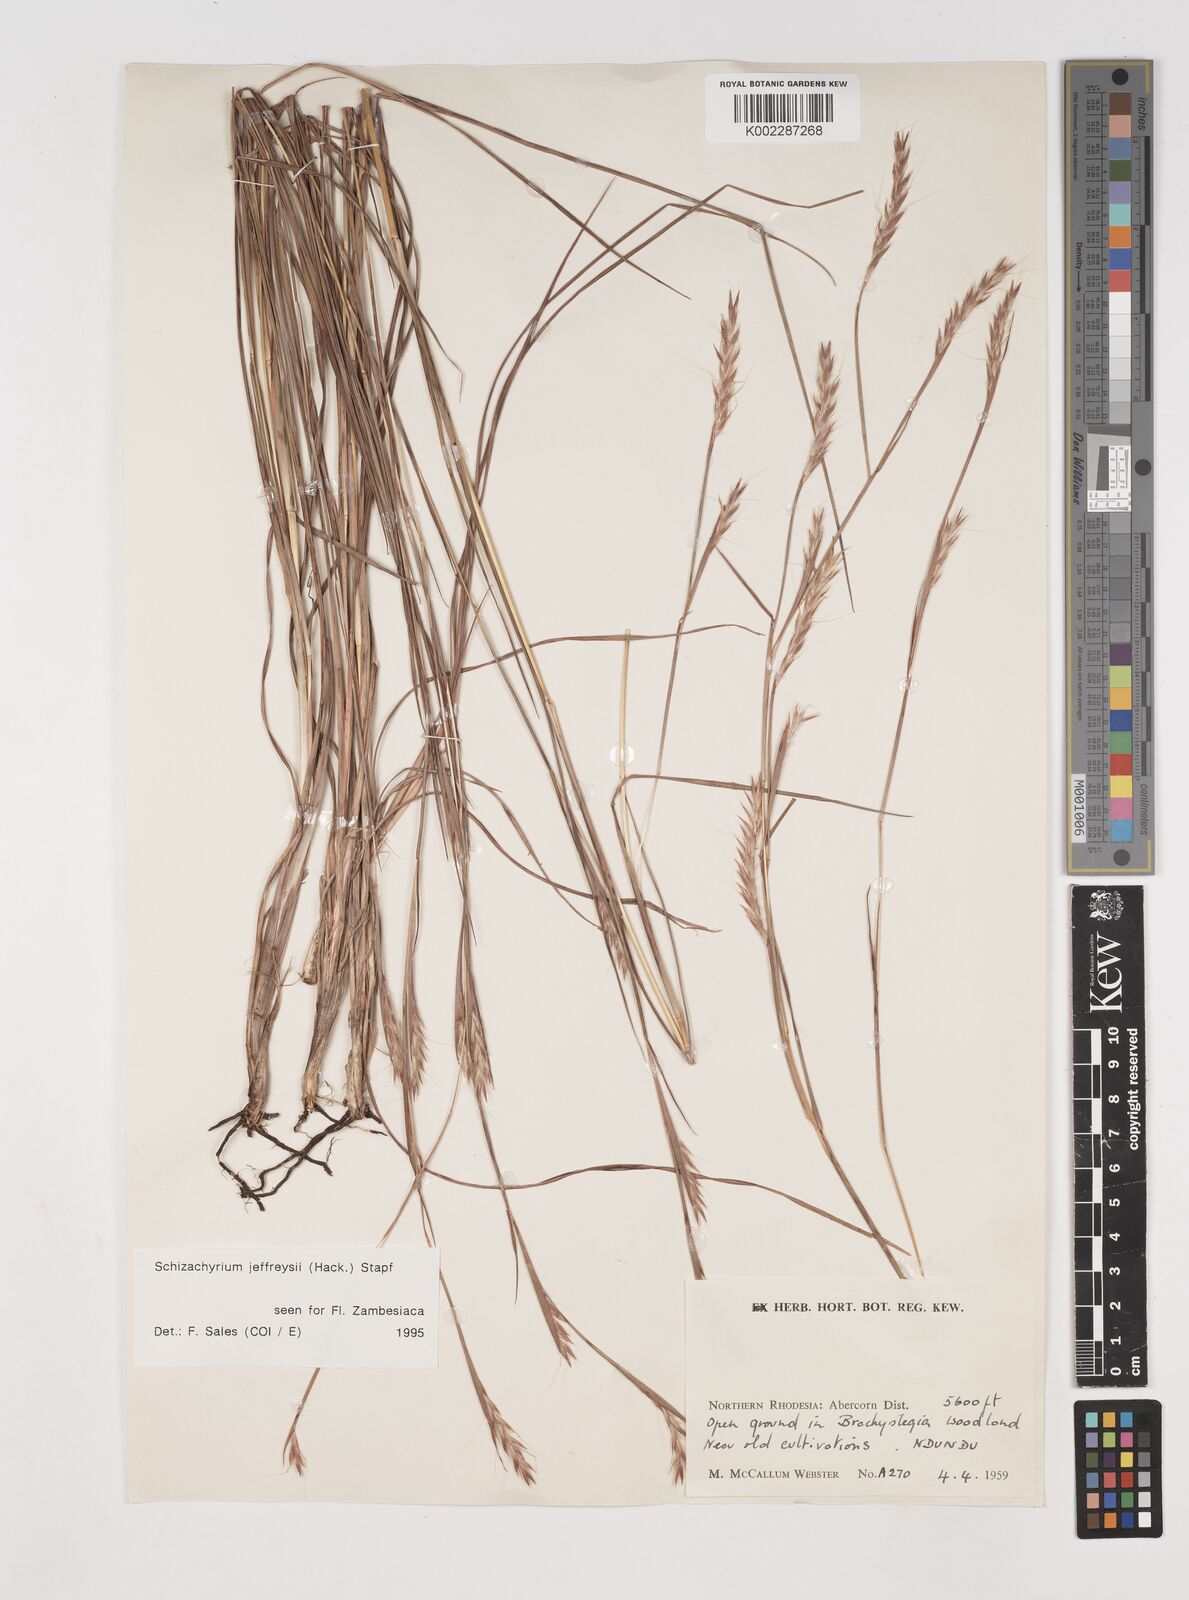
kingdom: Plantae
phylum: Tracheophyta
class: Liliopsida
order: Poales
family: Poaceae
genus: Schizachyrium
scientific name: Schizachyrium jeffreysii
